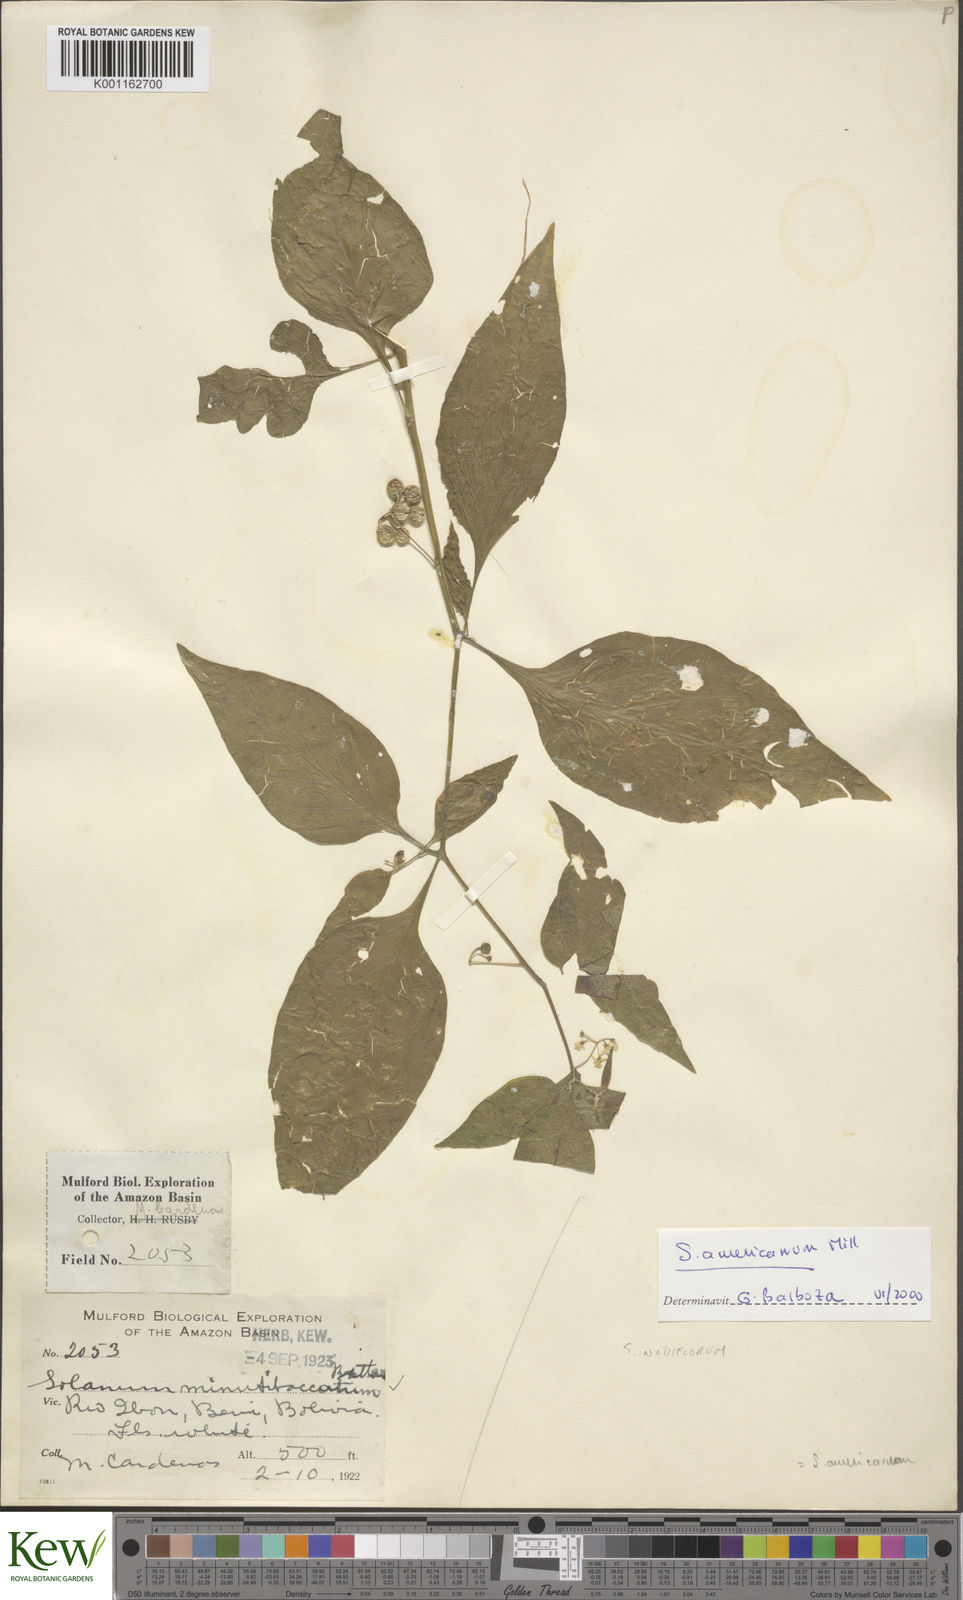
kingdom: Plantae
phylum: Tracheophyta
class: Magnoliopsida
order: Solanales
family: Solanaceae
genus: Solanum
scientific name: Solanum americanum
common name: American black nightshade
